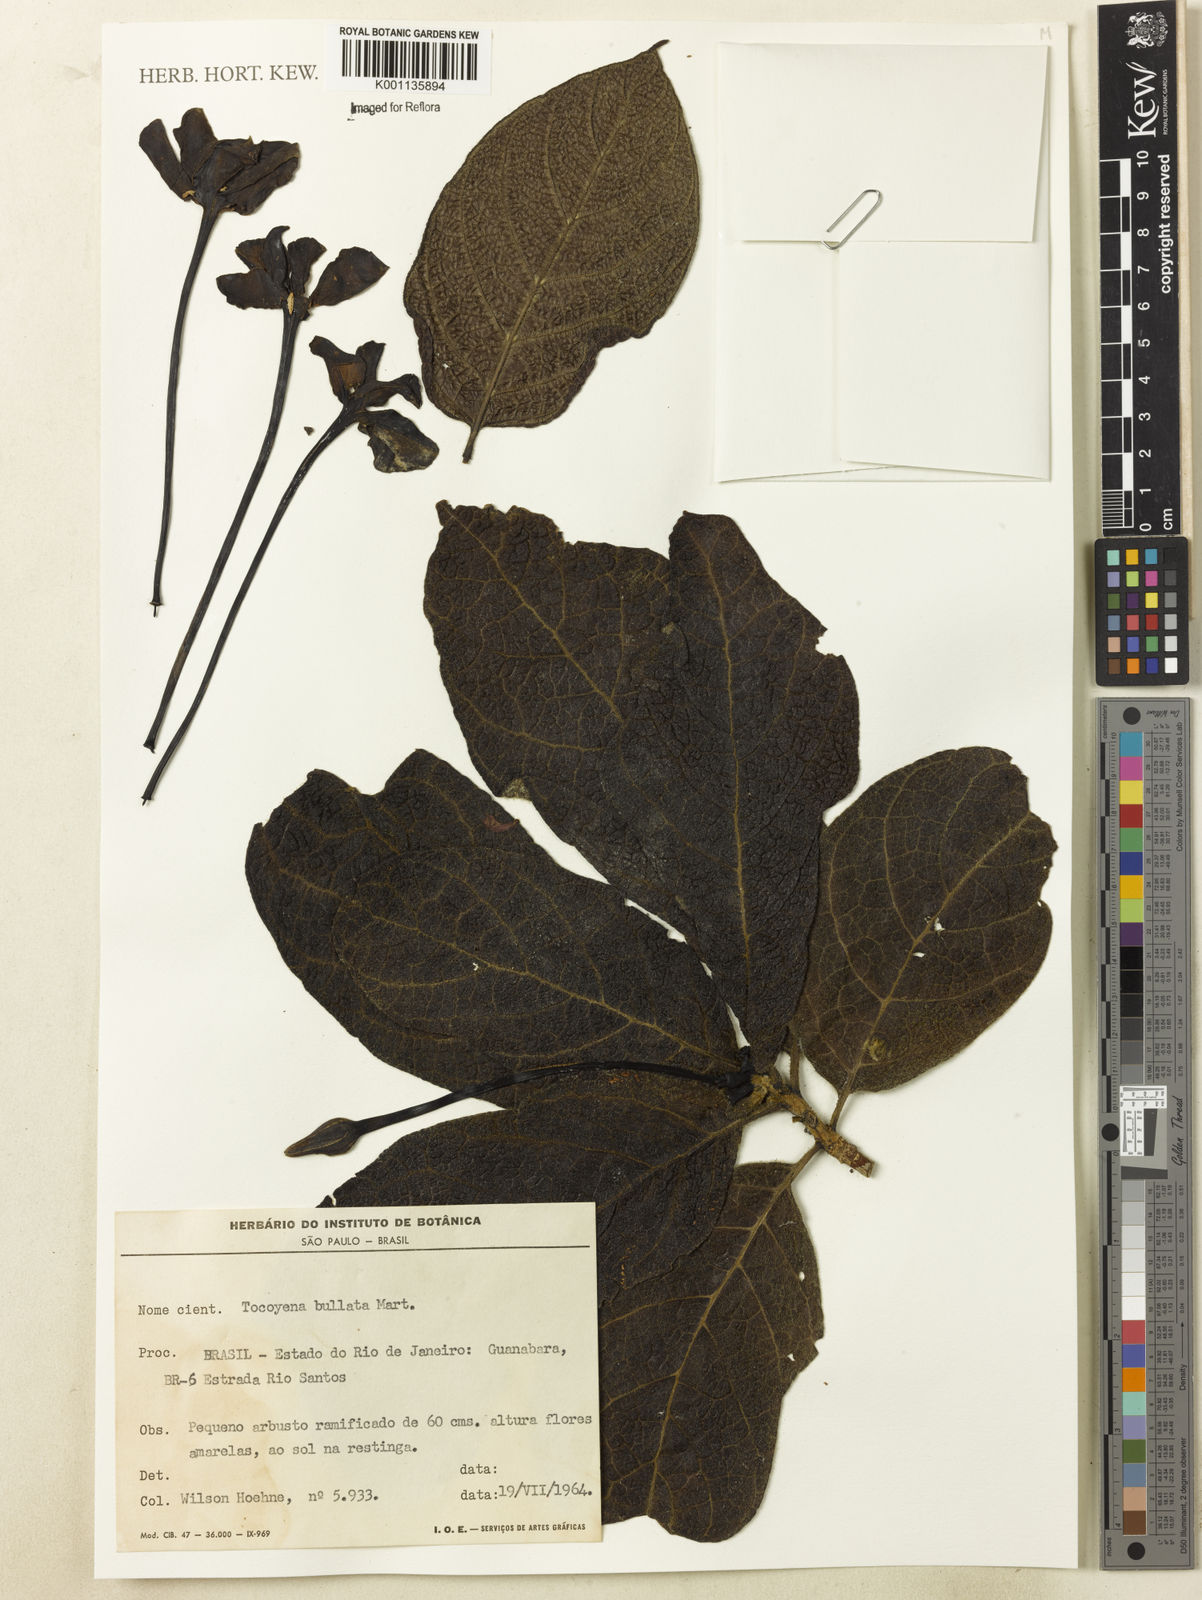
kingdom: Plantae
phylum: Tracheophyta
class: Magnoliopsida
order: Gentianales
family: Rubiaceae
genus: Tocoyena
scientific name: Tocoyena bullata
